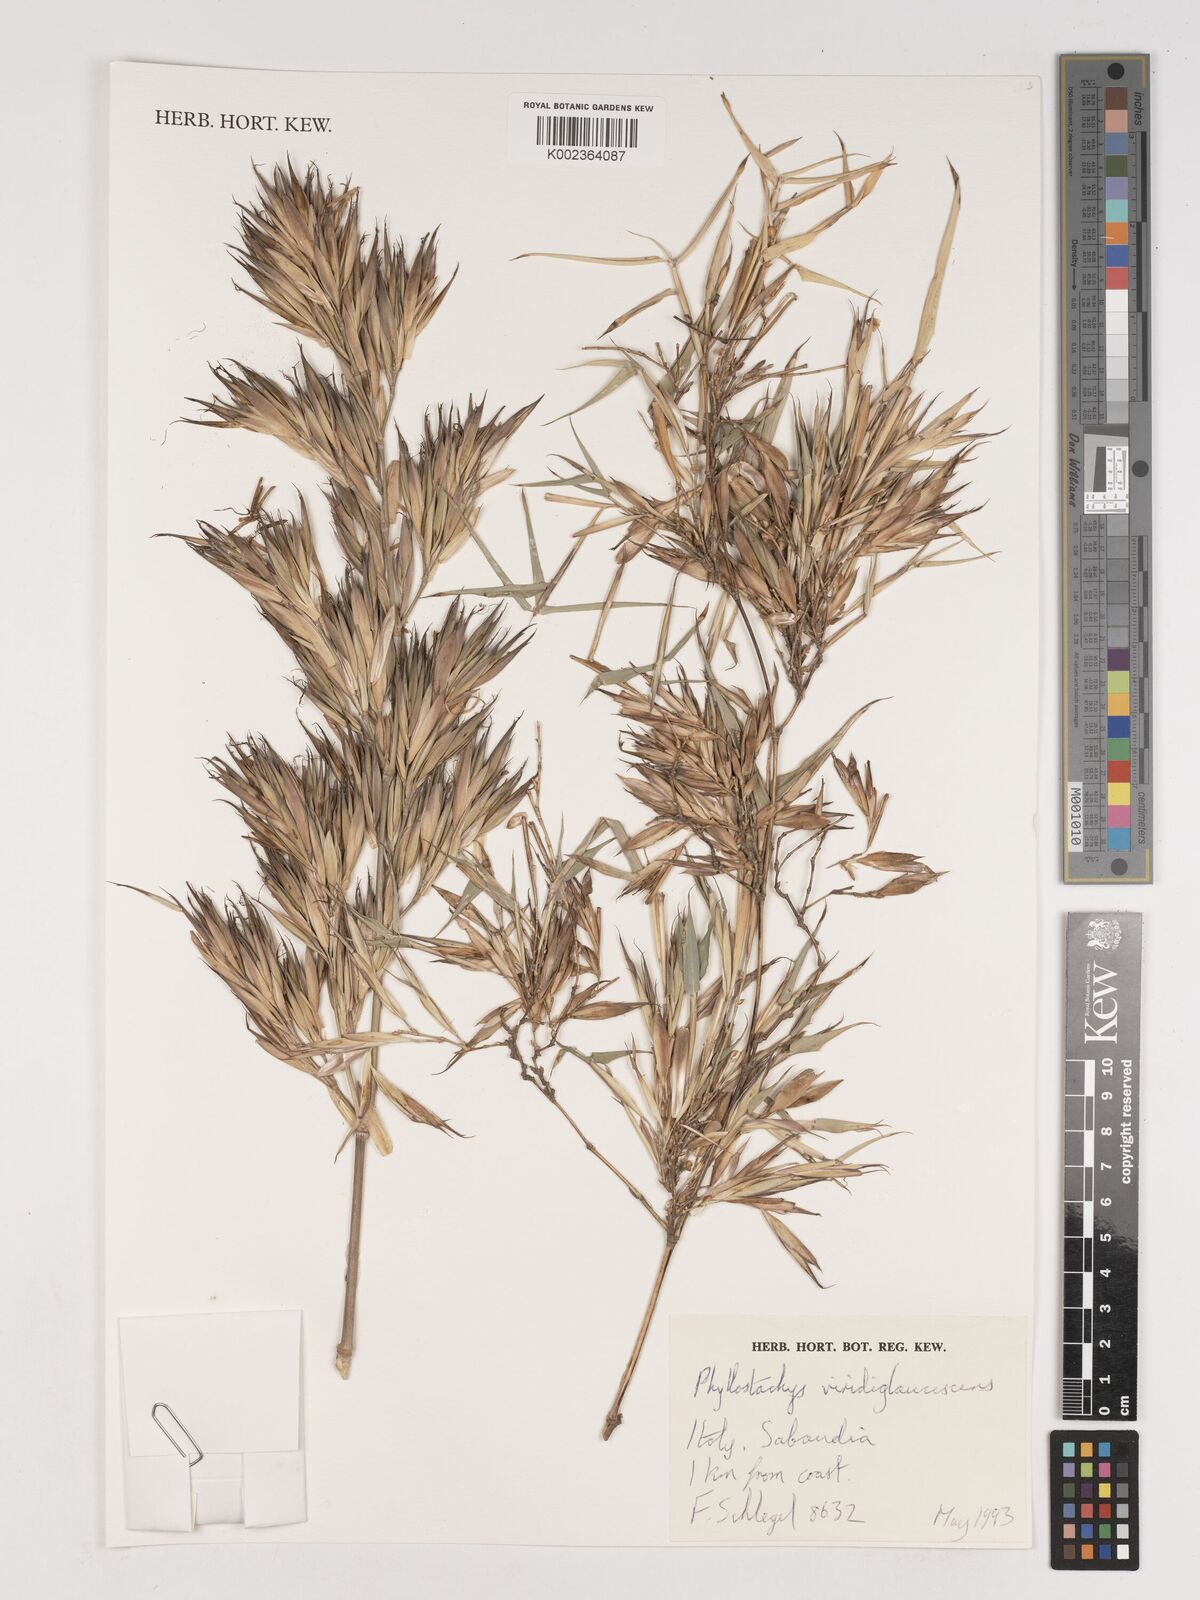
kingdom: Plantae
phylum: Tracheophyta
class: Liliopsida
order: Poales
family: Poaceae
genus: Phyllostachys
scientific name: Phyllostachys viridiglaucescens
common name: Greenwax golden bamboo
